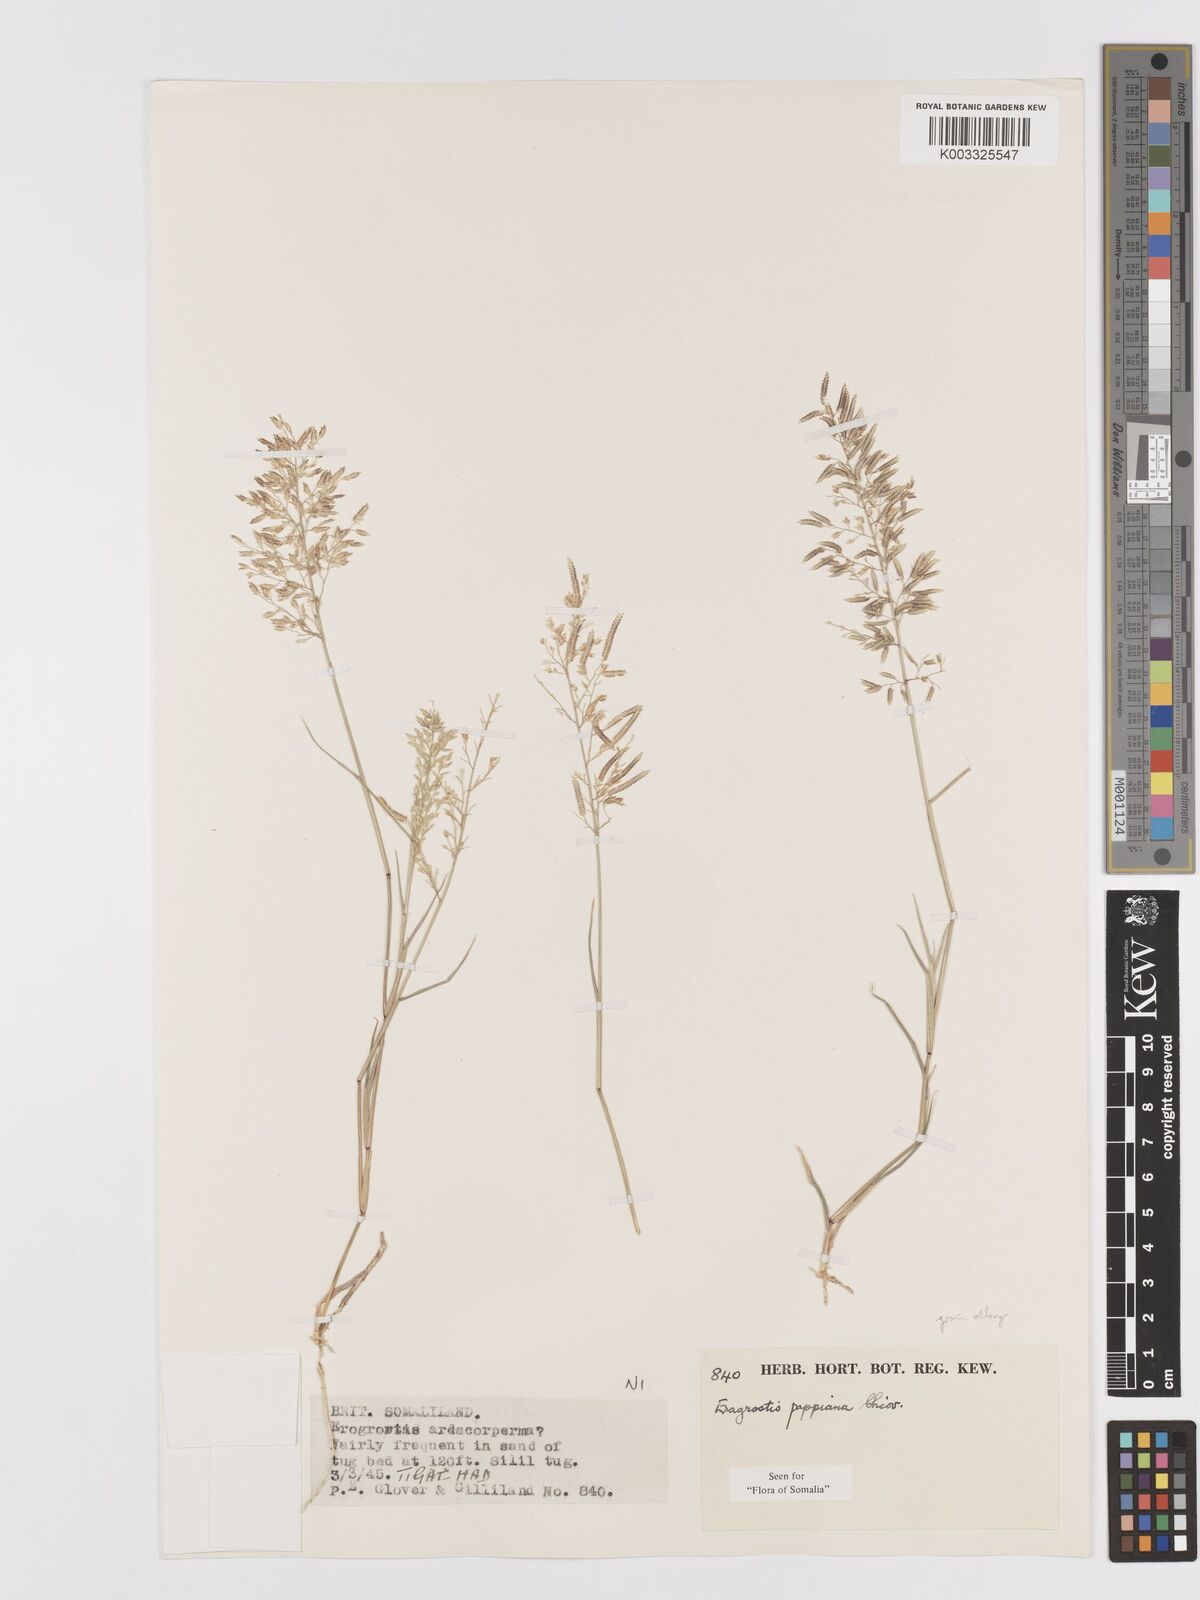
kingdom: Plantae
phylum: Tracheophyta
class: Liliopsida
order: Poales
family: Poaceae
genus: Eragrostis
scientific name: Eragrostis minor
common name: Small love-grass
